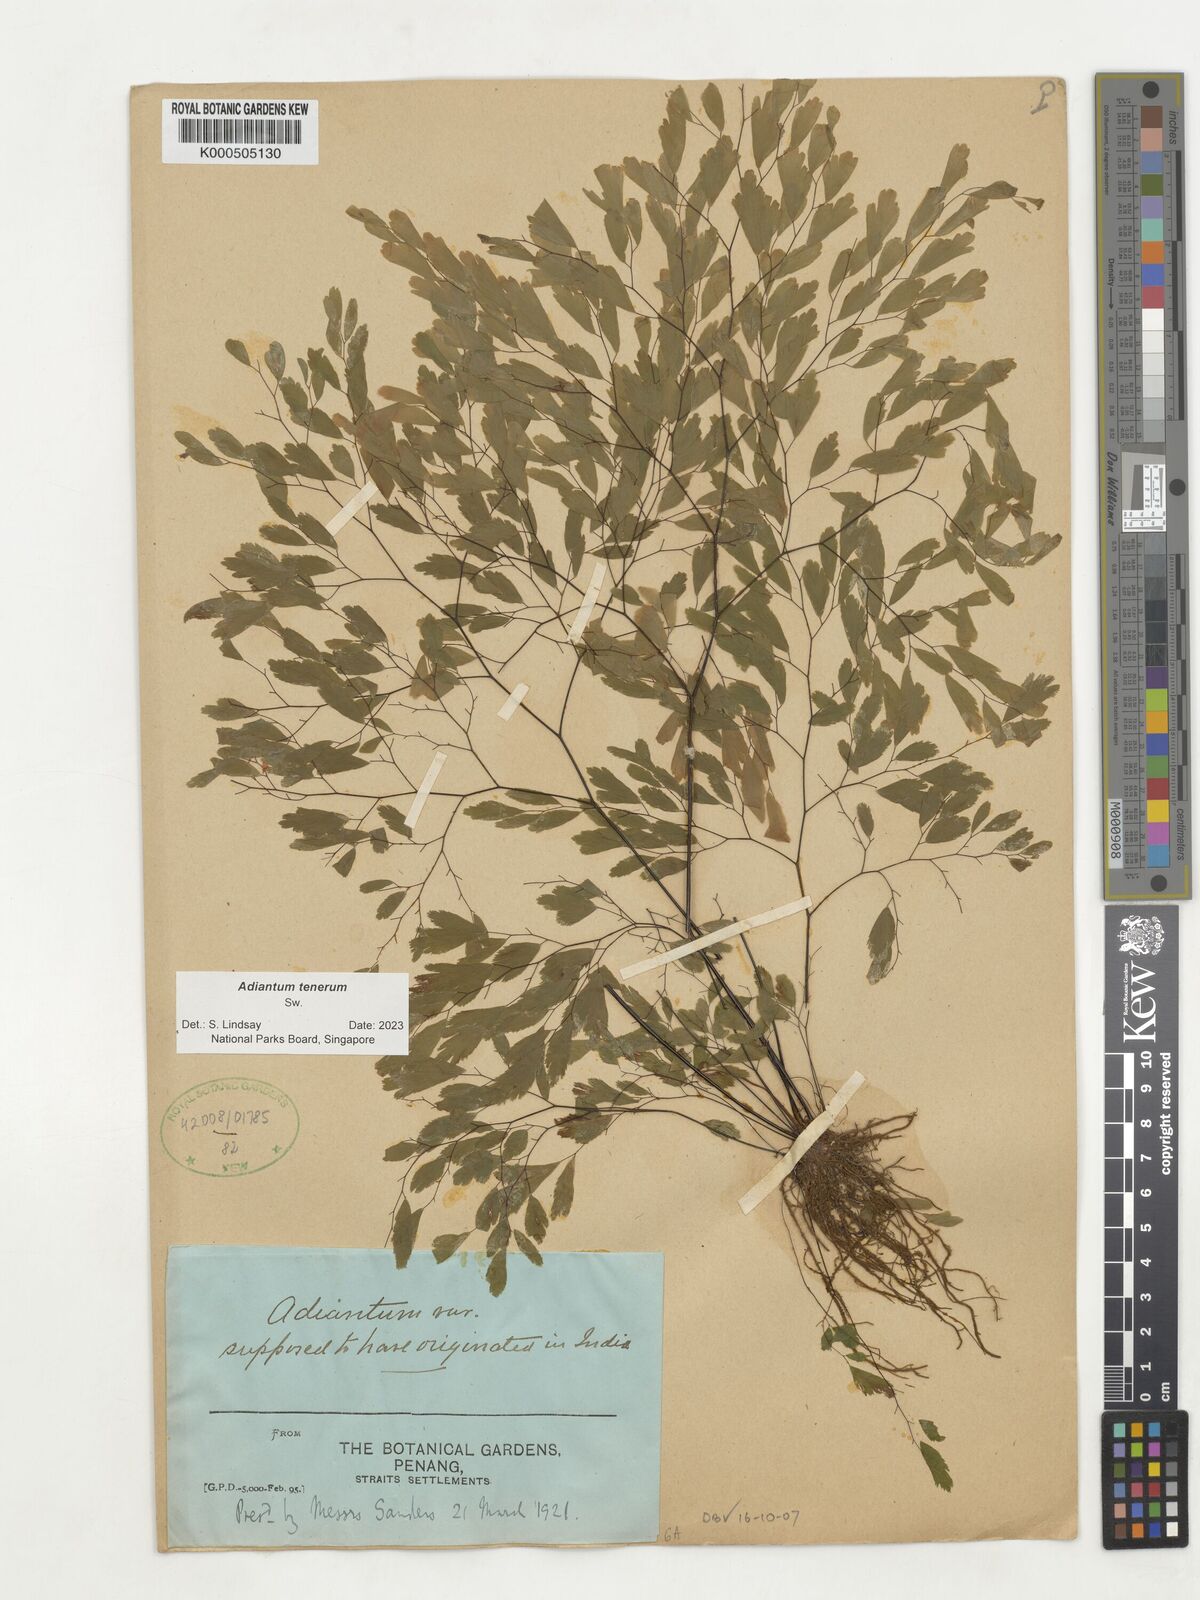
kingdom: Plantae
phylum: Tracheophyta
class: Polypodiopsida
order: Polypodiales
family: Pteridaceae
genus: Adiantum
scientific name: Adiantum tenerum
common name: Fan maidenhair
